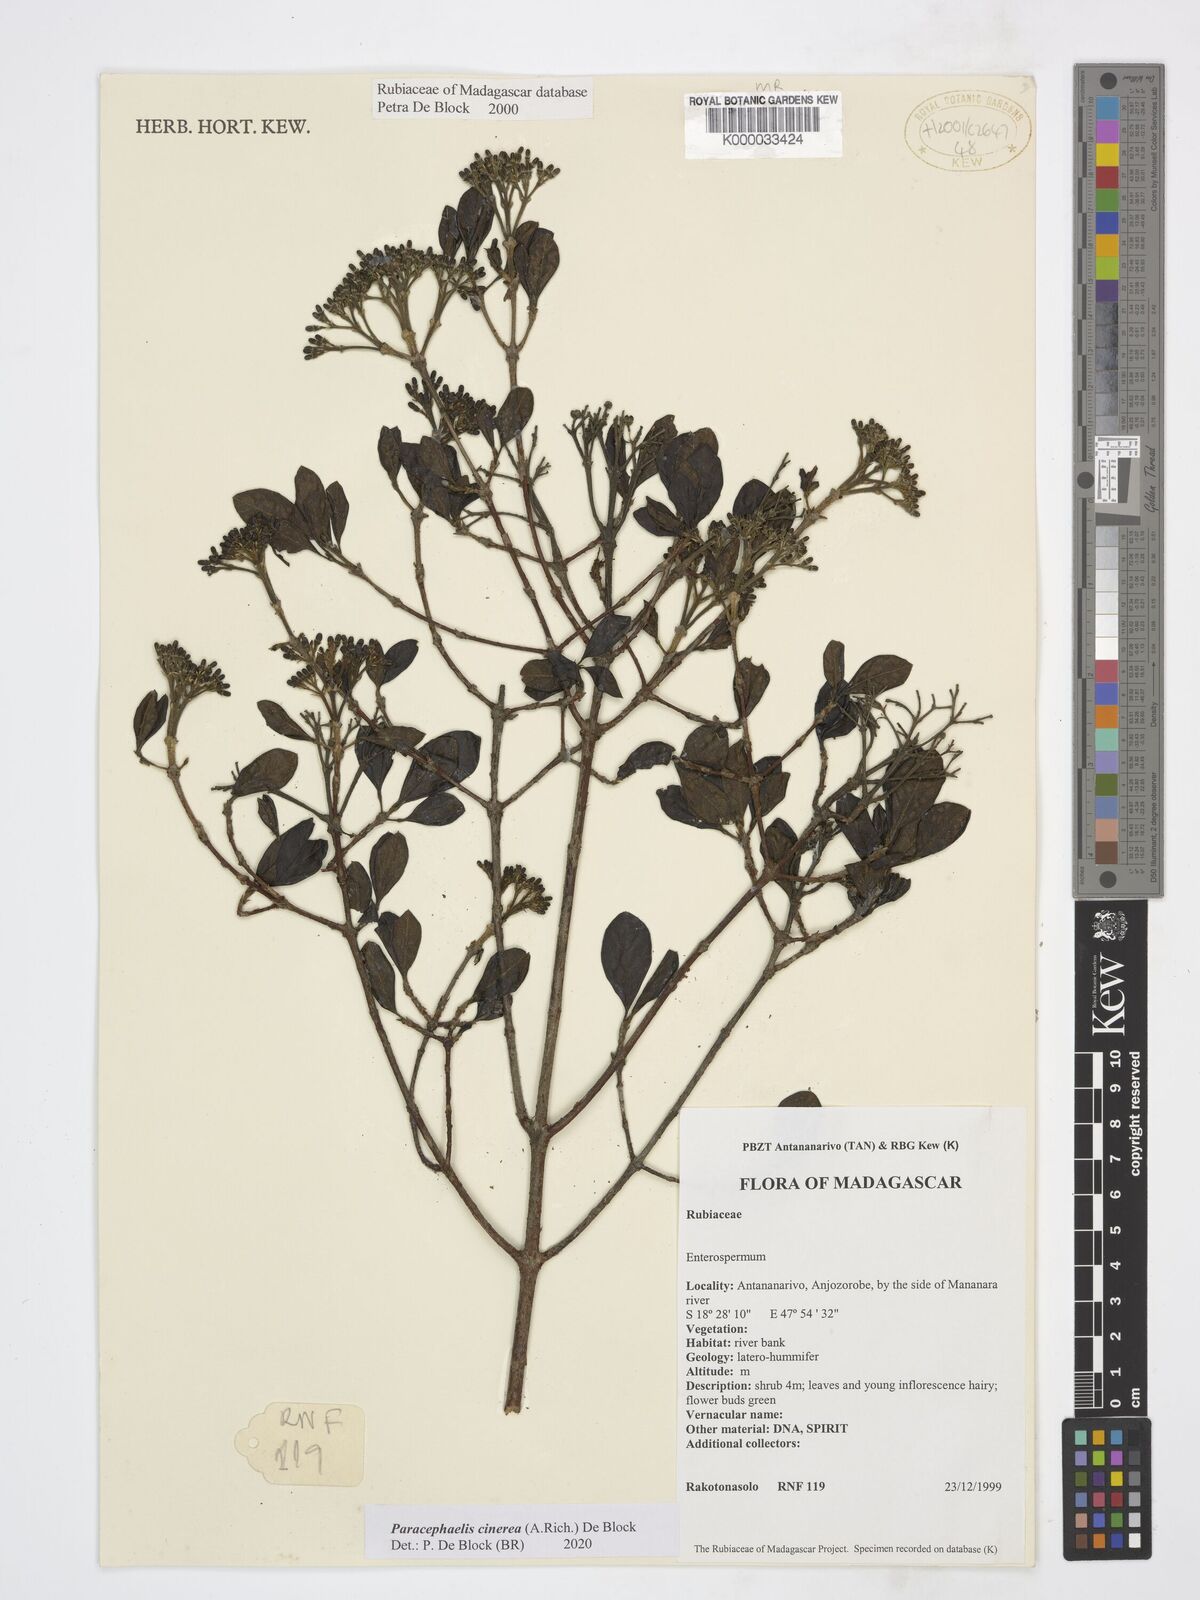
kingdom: Plantae
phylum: Tracheophyta
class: Magnoliopsida
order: Gentianales
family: Rubiaceae
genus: Paracephaelis
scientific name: Paracephaelis cinerea
